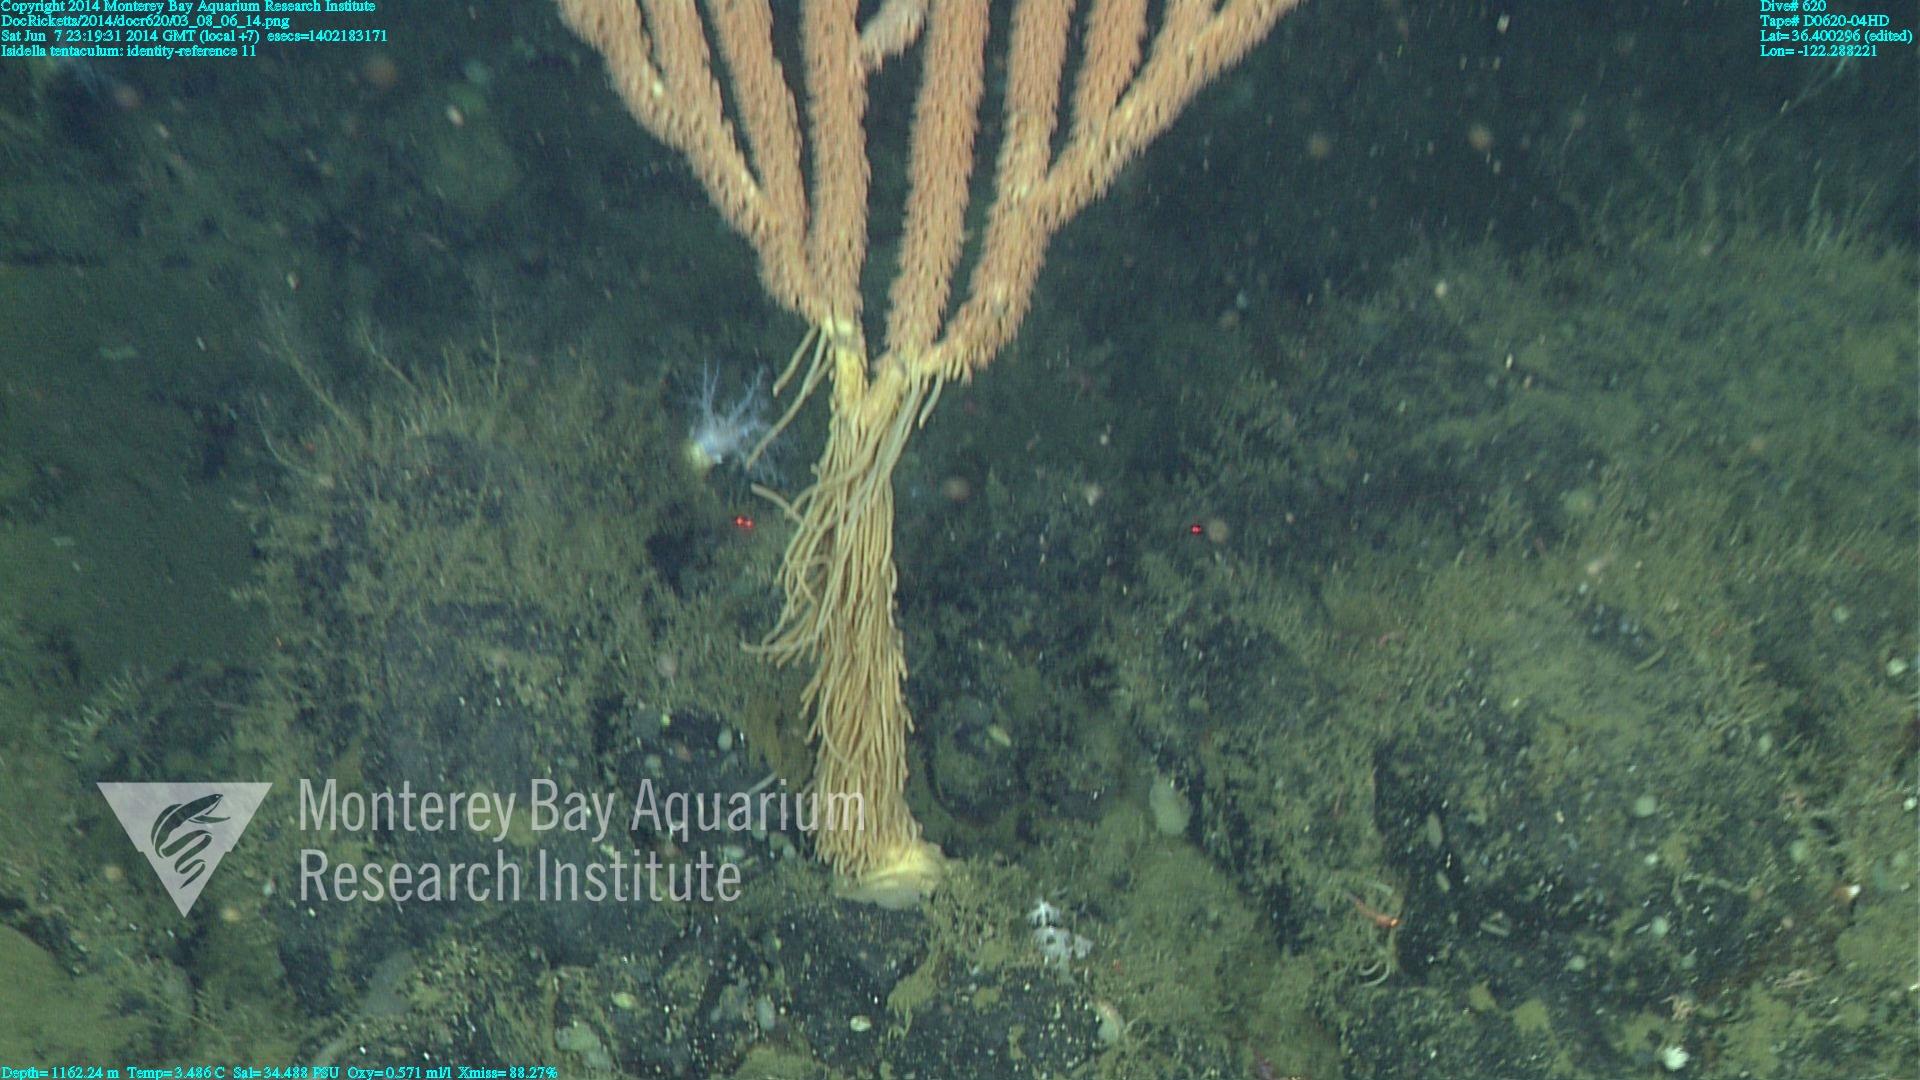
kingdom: Animalia
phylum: Cnidaria
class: Anthozoa
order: Scleralcyonacea
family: Keratoisididae
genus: Isidella
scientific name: Isidella tentaculum
